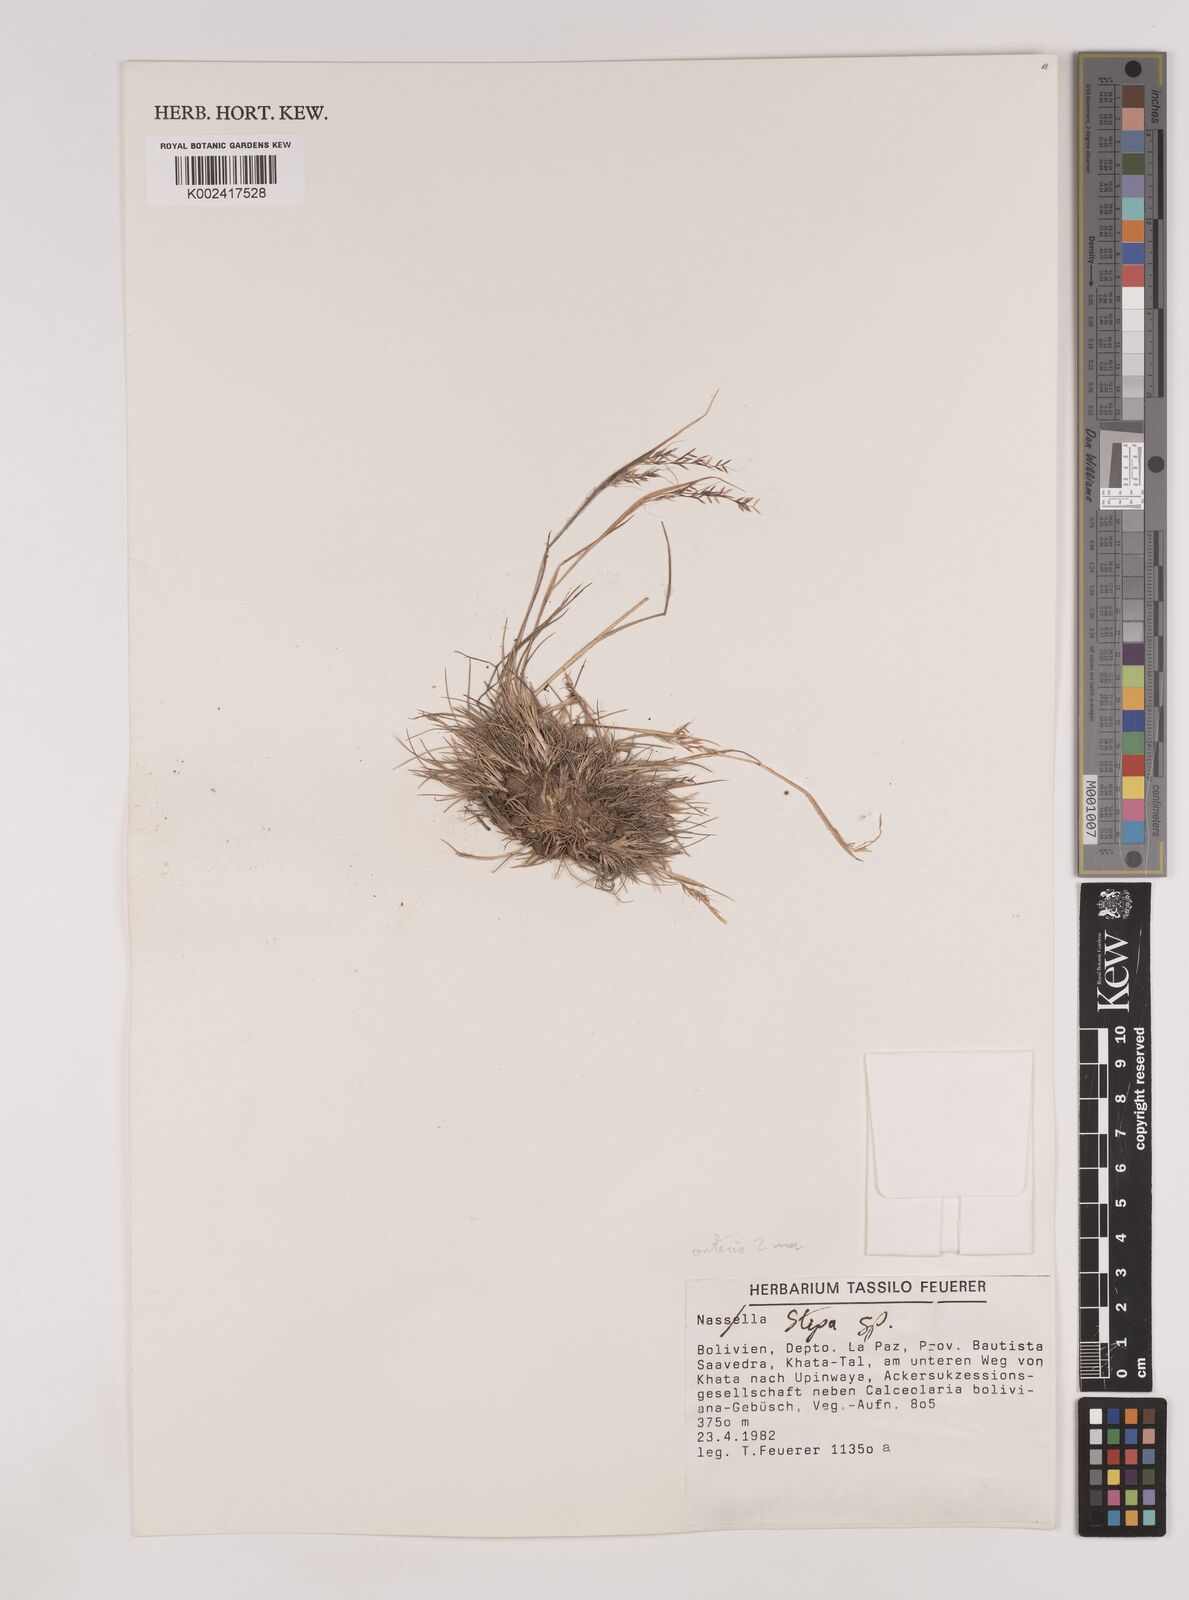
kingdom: Plantae
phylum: Tracheophyta
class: Liliopsida
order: Poales
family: Poaceae
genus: Nassella
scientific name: Nassella pubiflora
